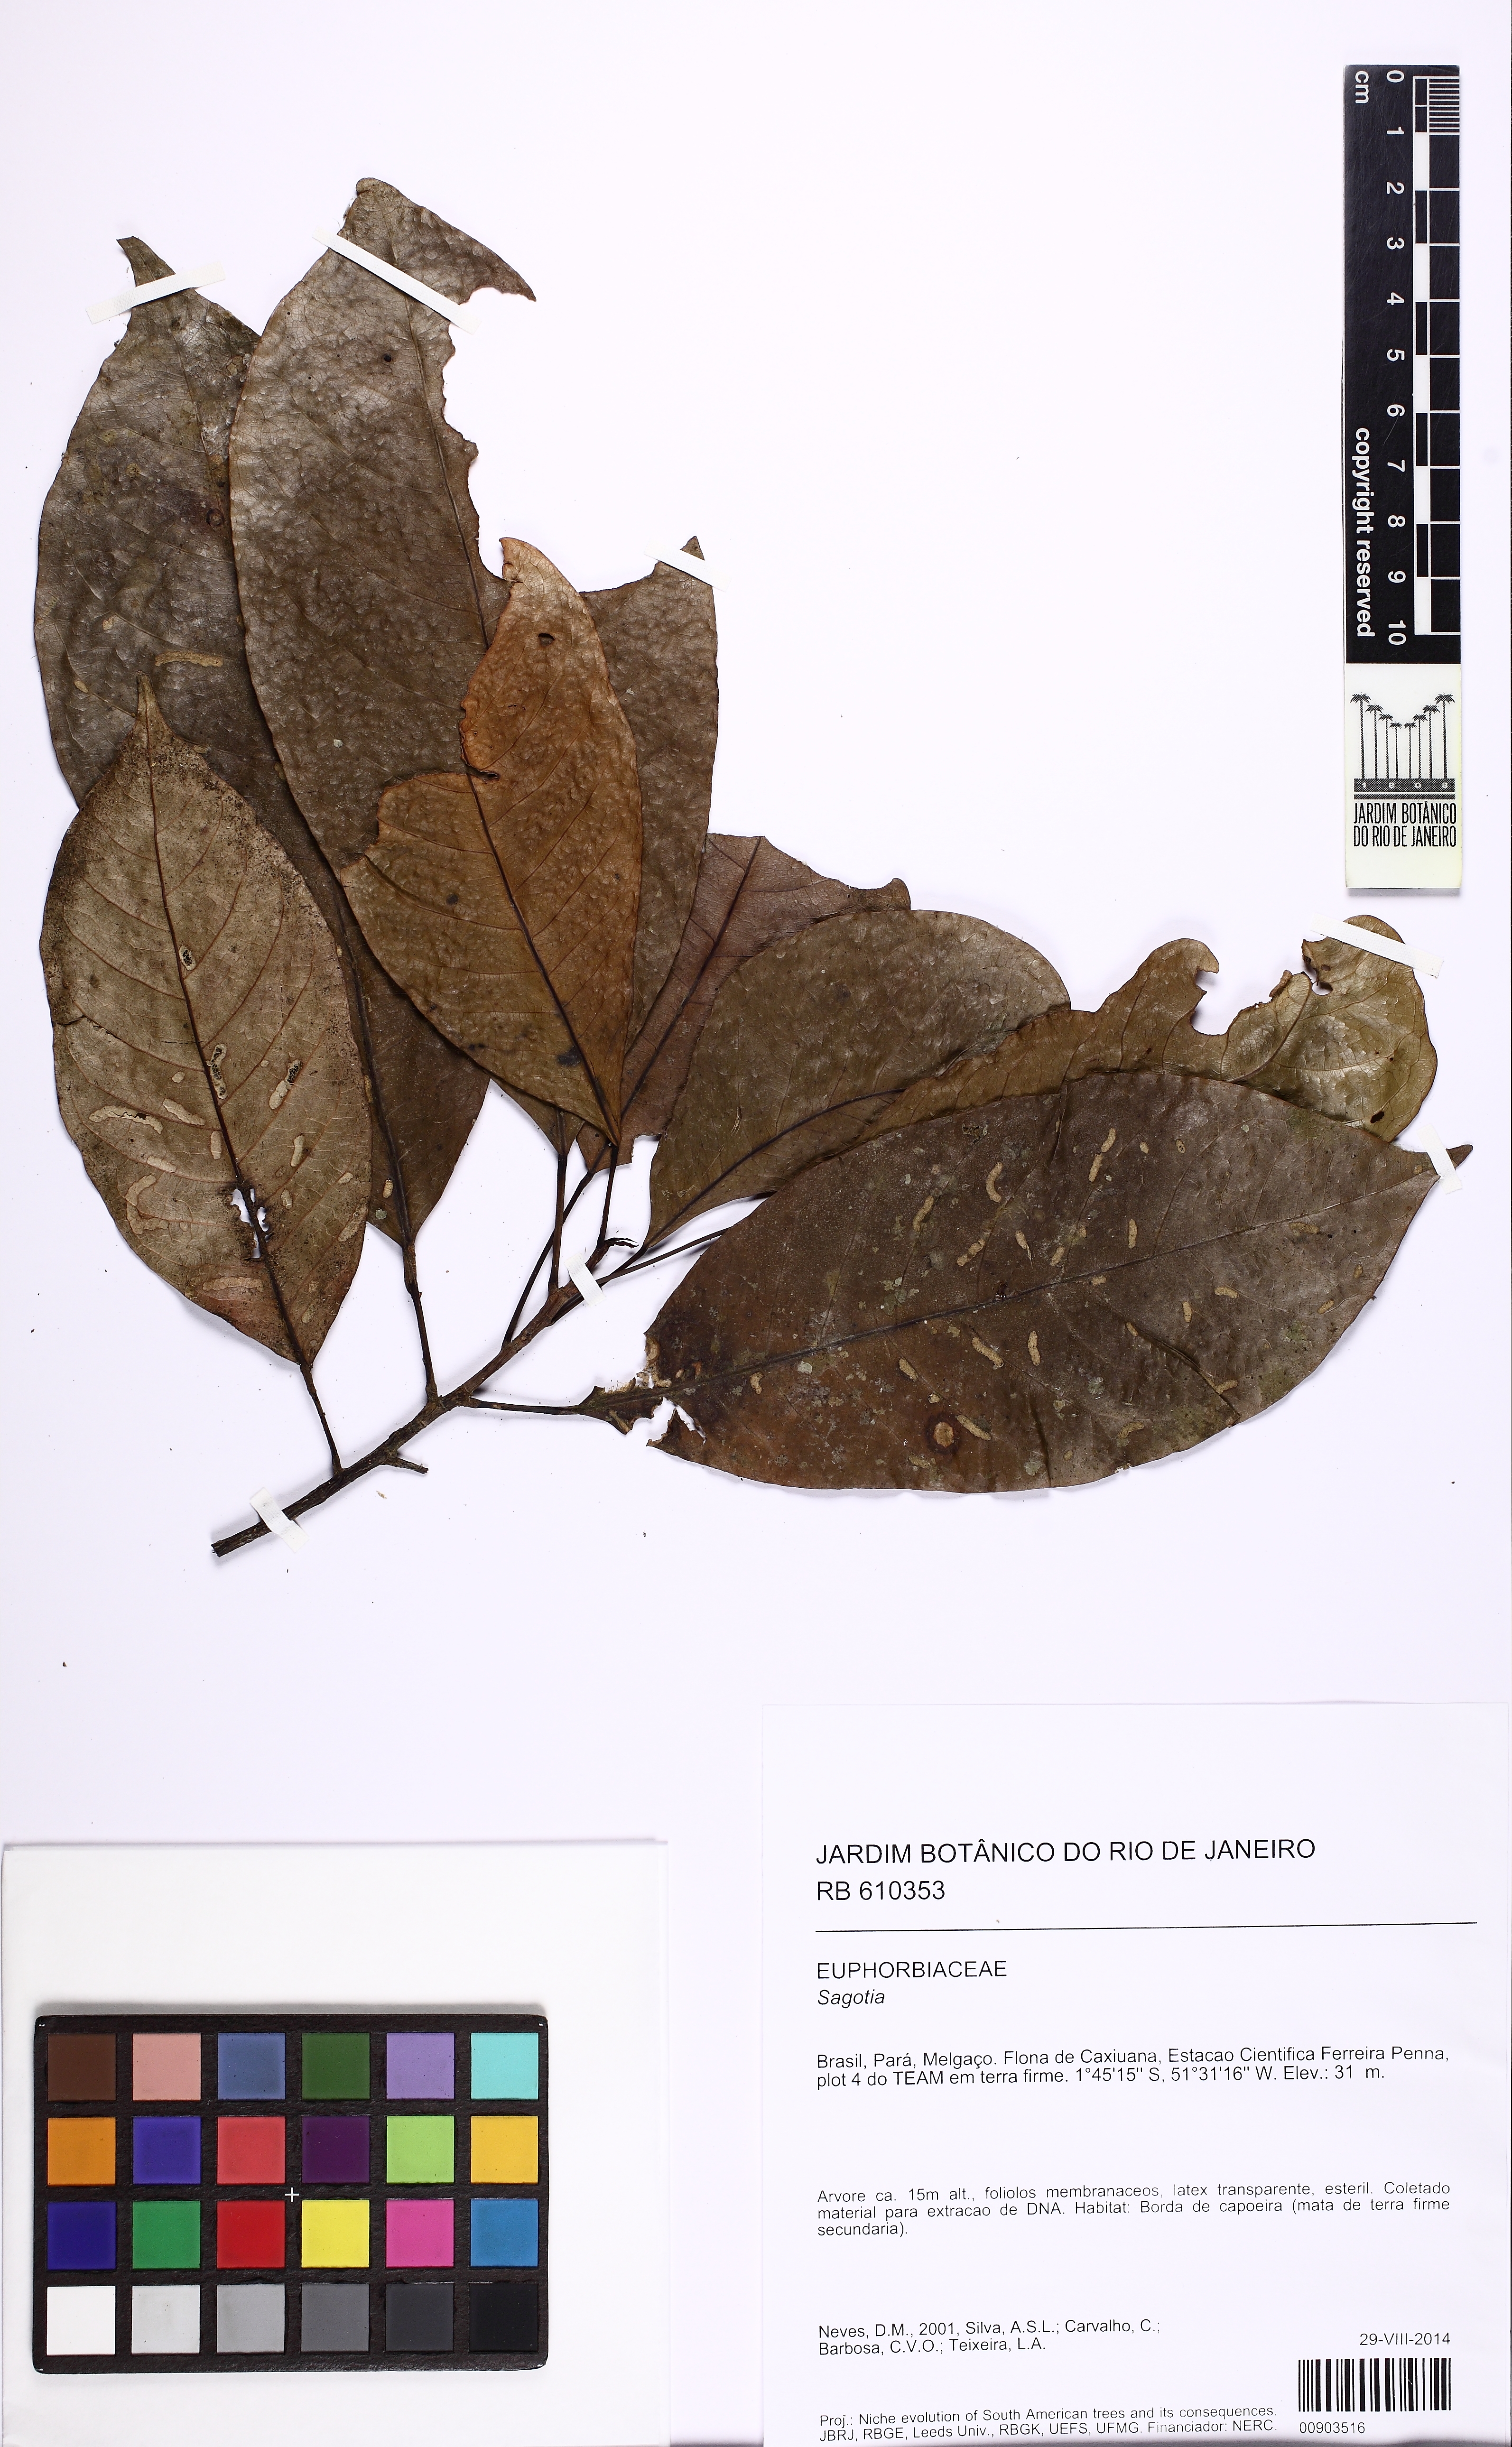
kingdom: Plantae
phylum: Tracheophyta
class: Magnoliopsida
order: Malpighiales
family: Euphorbiaceae
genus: Sagotia
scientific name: Sagotia
